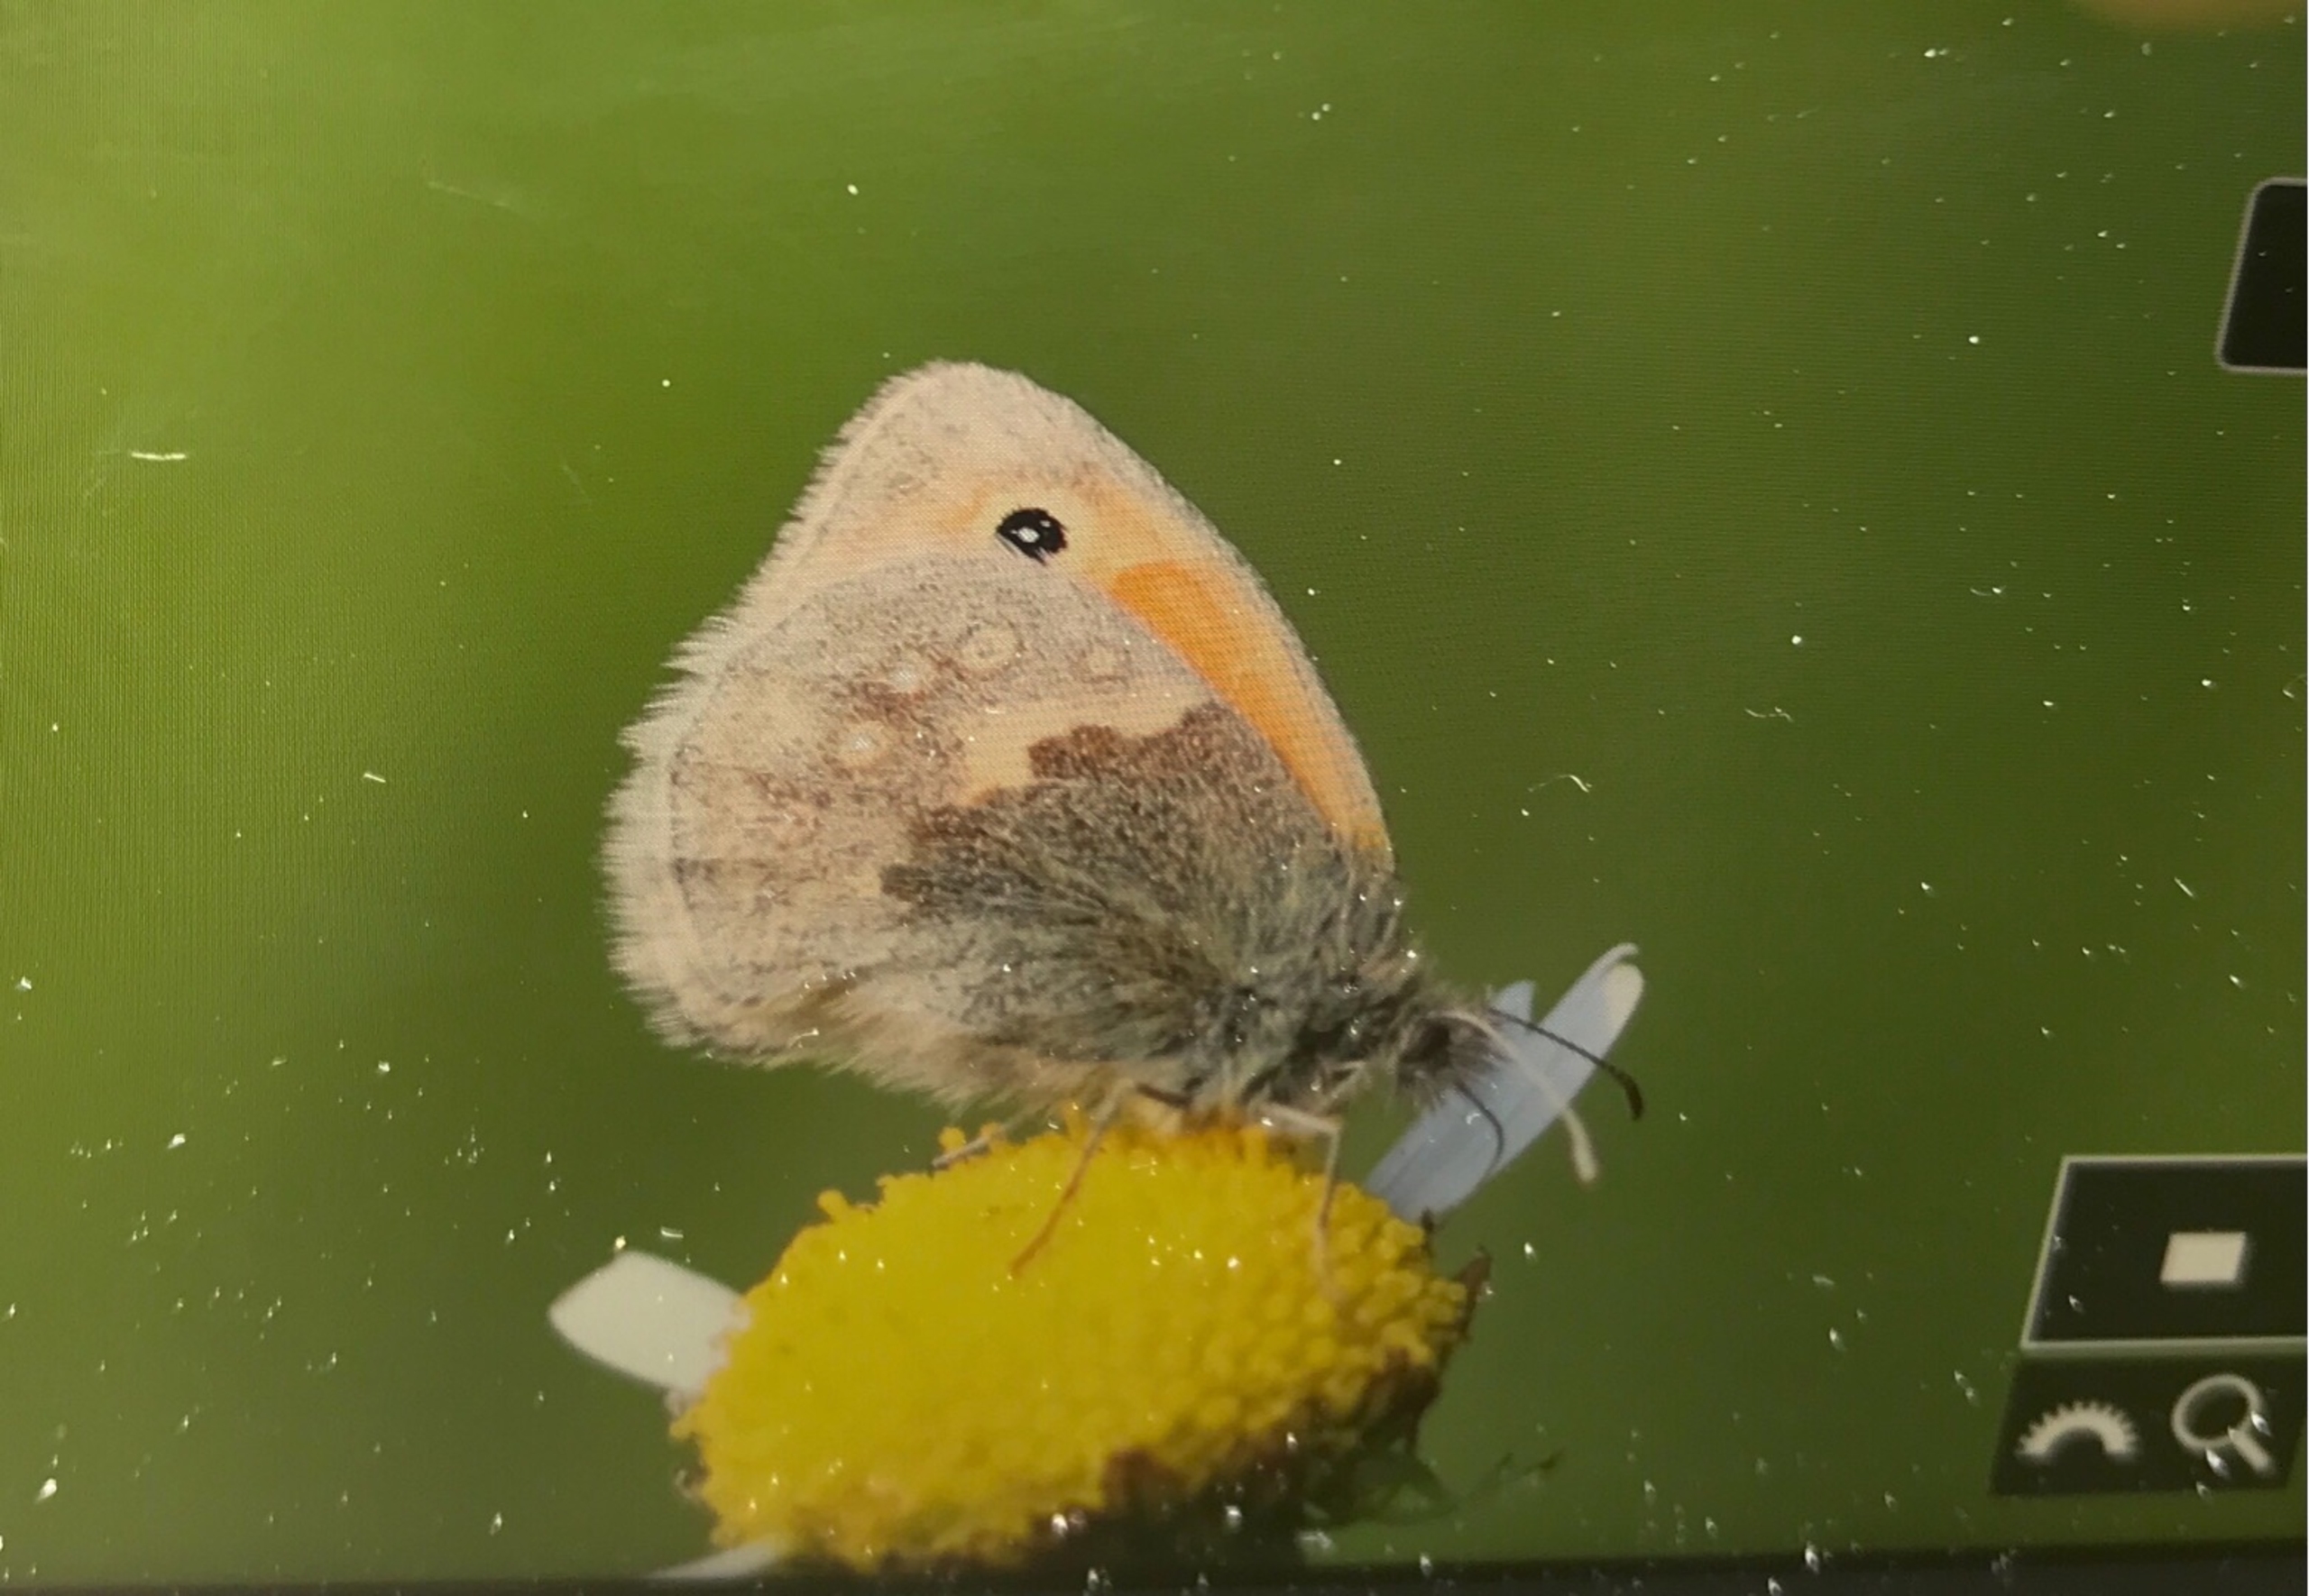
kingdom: Animalia
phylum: Arthropoda
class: Insecta
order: Lepidoptera
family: Nymphalidae
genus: Coenonympha
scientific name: Coenonympha pamphilus
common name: Okkergul randøje
